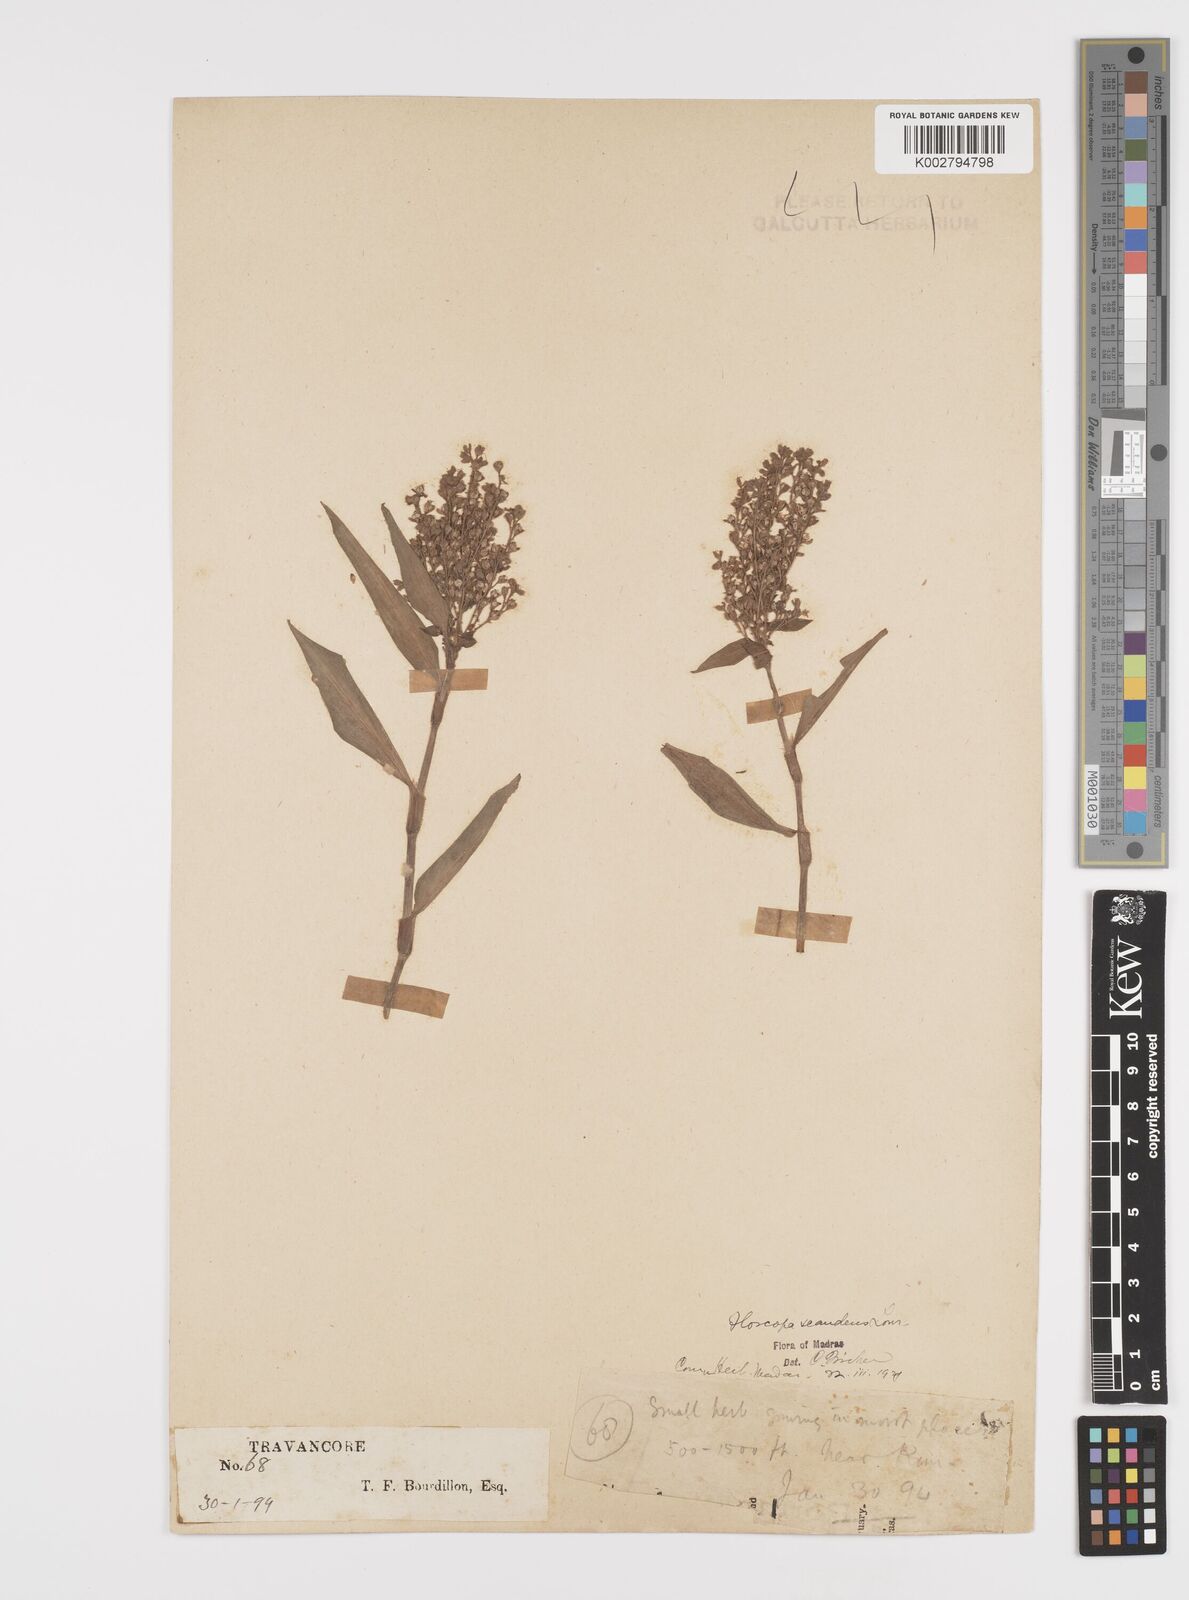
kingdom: Plantae
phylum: Tracheophyta
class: Liliopsida
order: Commelinales
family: Commelinaceae
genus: Floscopa
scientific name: Floscopa scandens
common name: Climbing flower cup
